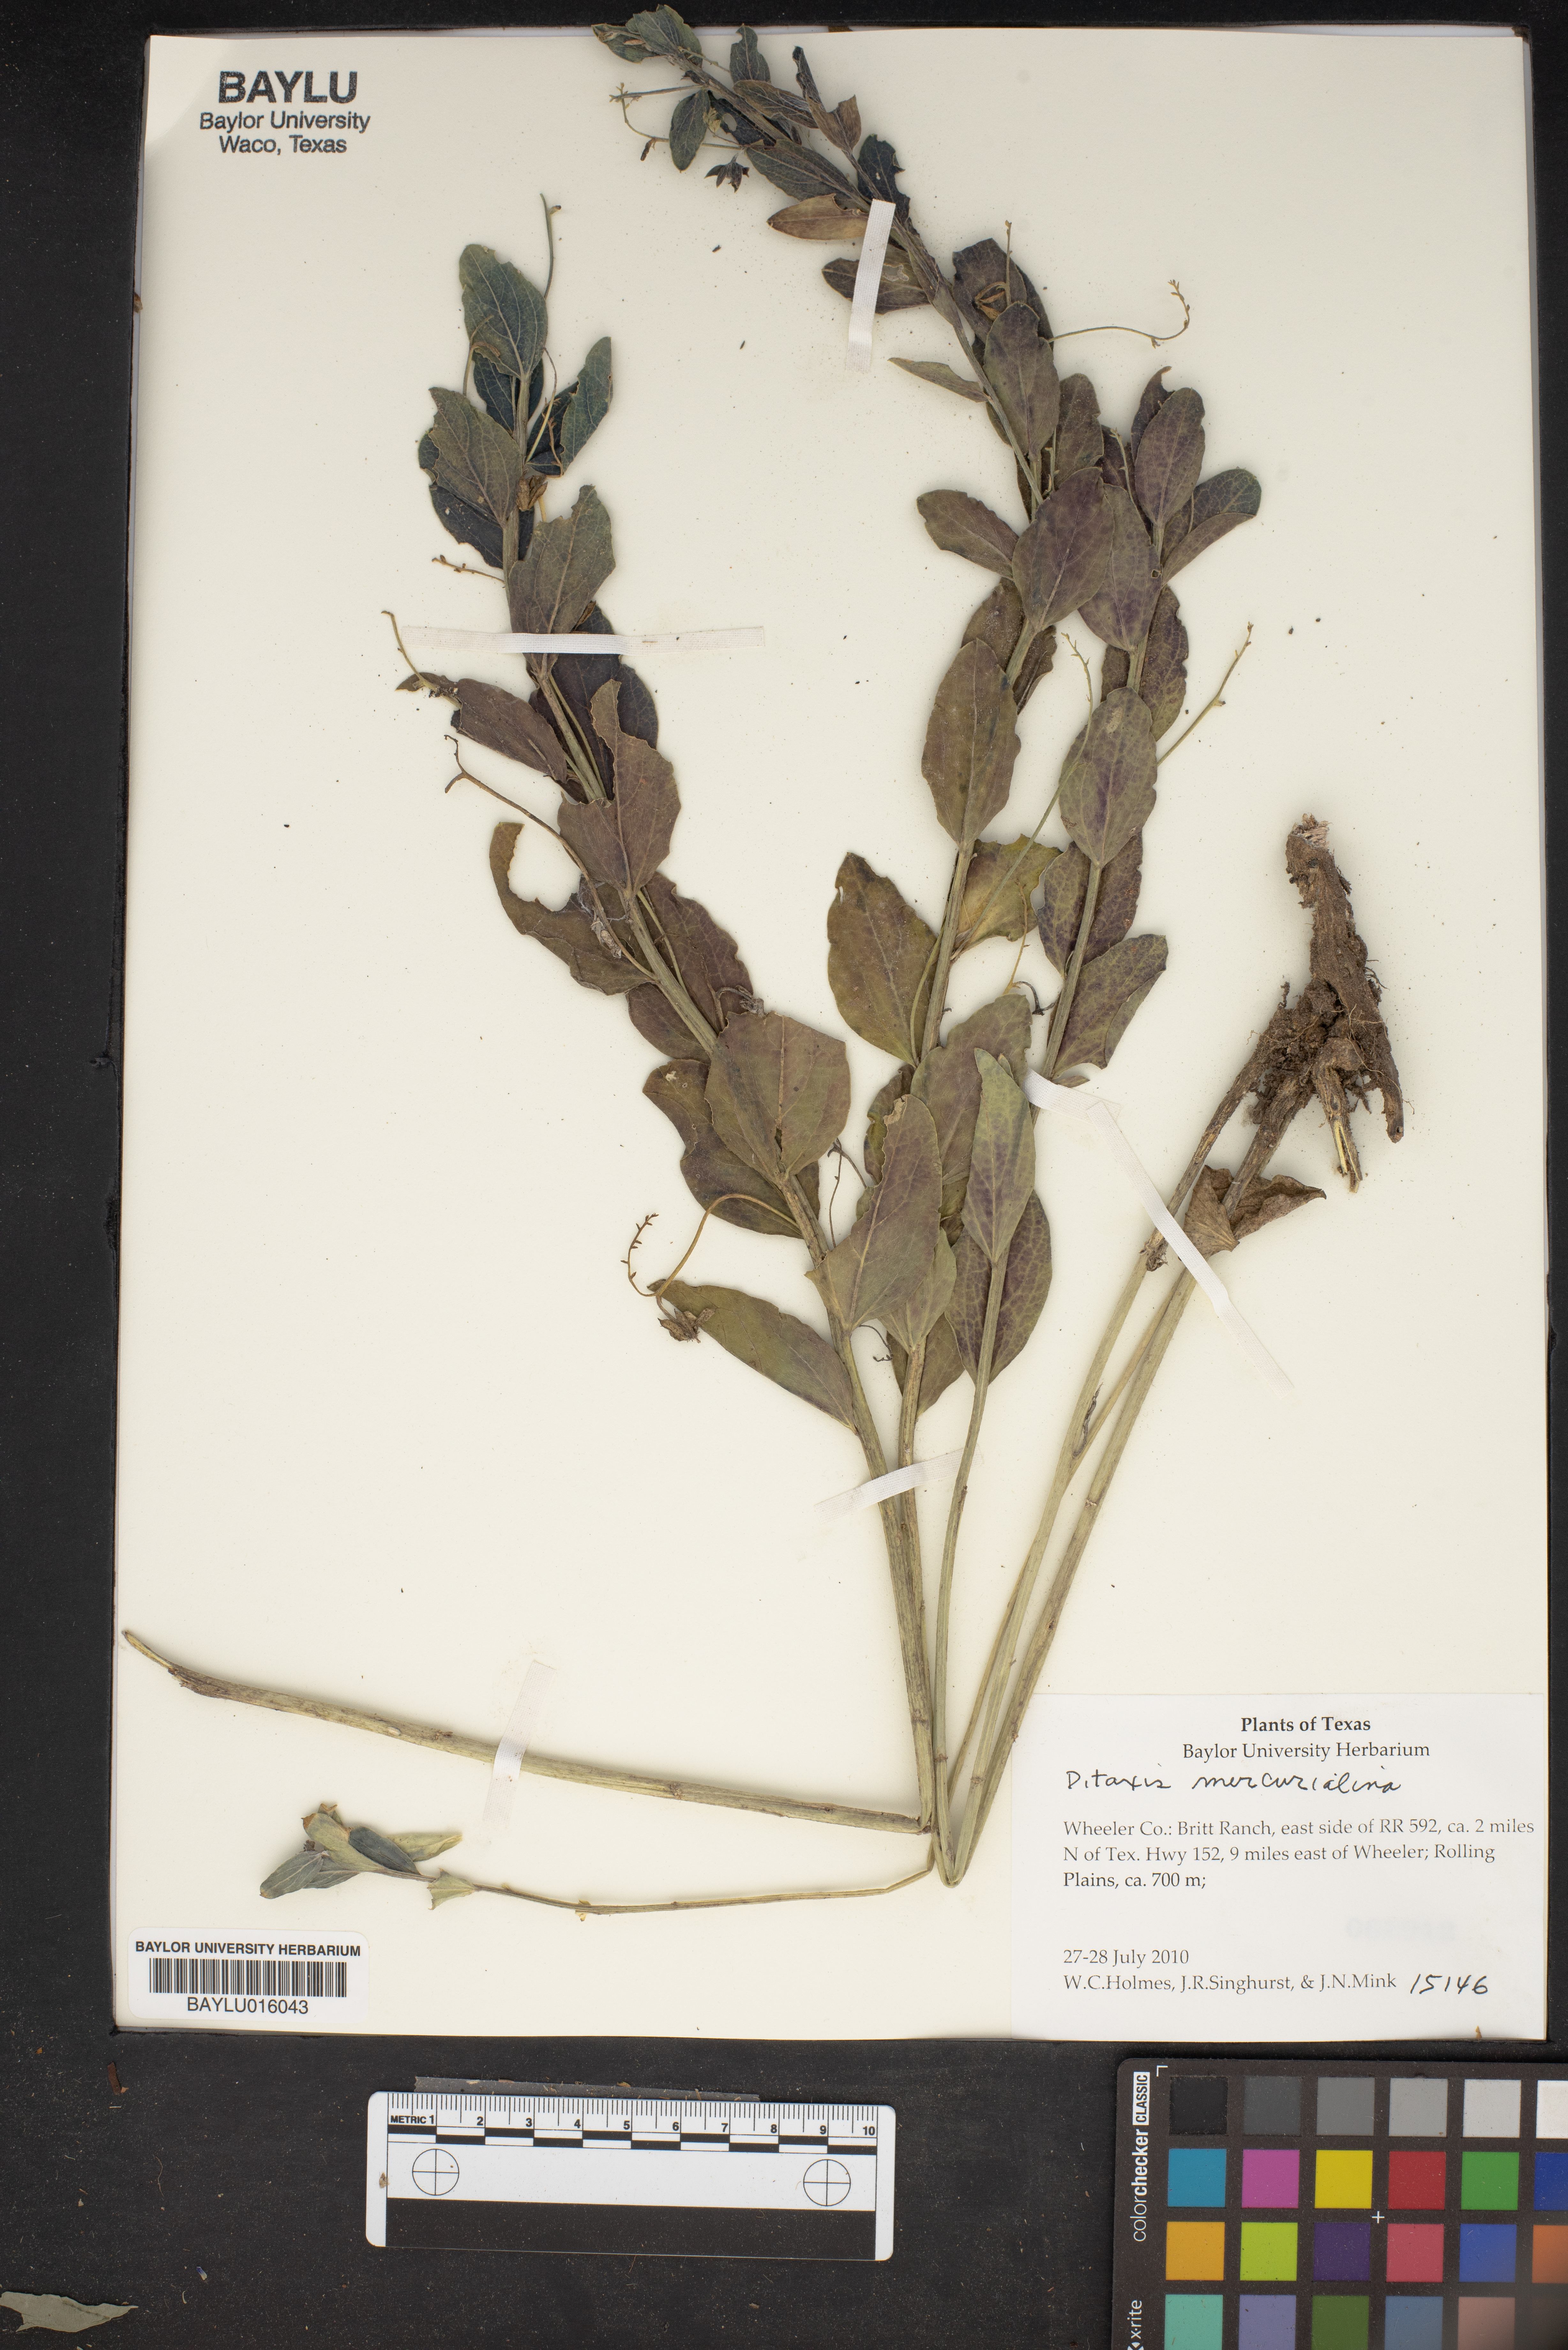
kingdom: Plantae
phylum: Tracheophyta
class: Magnoliopsida
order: Malpighiales
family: Euphorbiaceae
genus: Ditaxis
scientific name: Ditaxis mercurialina
